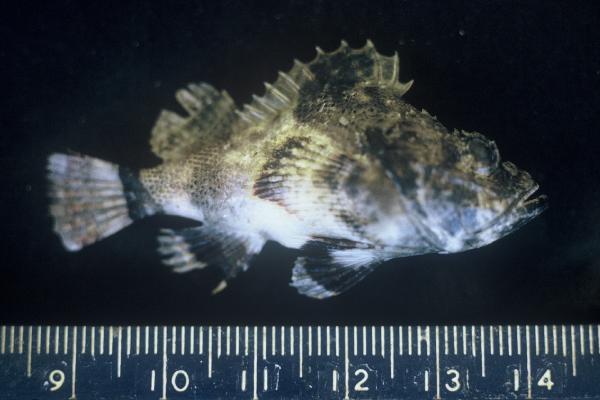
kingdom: Animalia
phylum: Chordata
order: Scorpaeniformes
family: Scorpaenidae
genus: Scorpaenopsis
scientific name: Scorpaenopsis gibbosa
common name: Humpback scorpionfish
